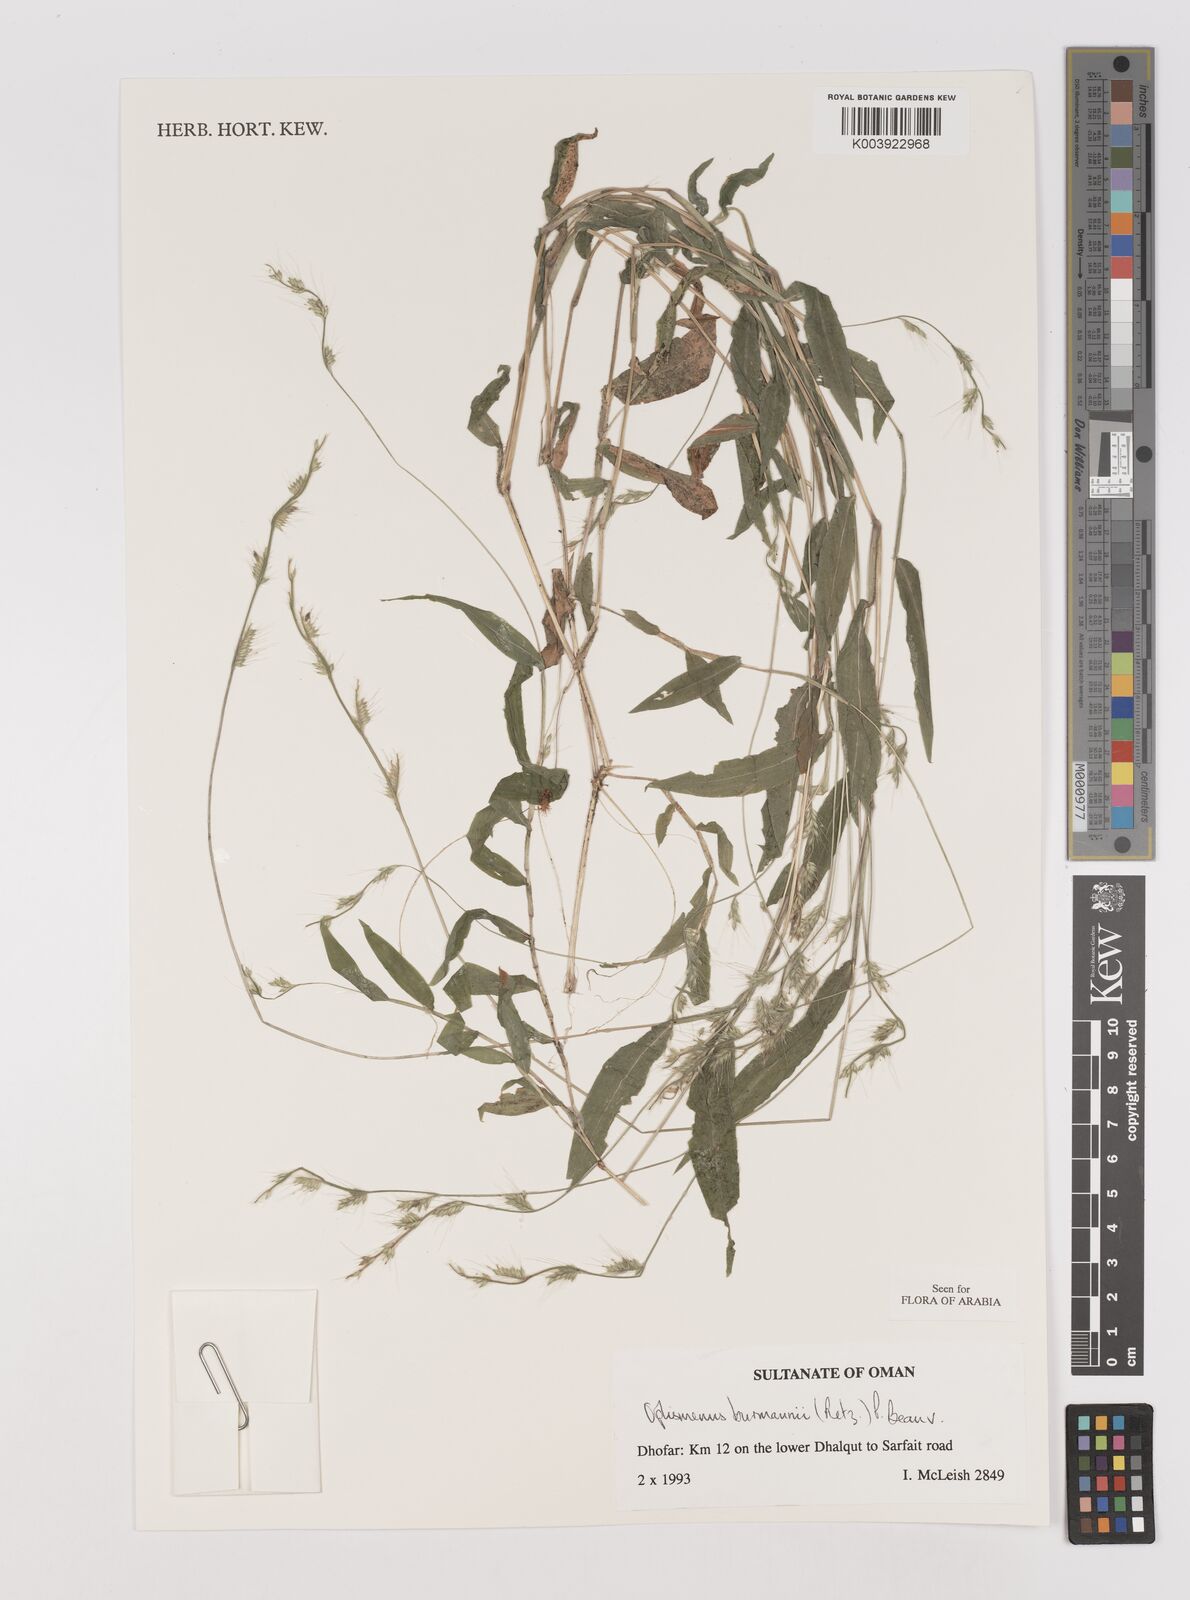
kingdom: Plantae
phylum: Tracheophyta
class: Liliopsida
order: Poales
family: Poaceae
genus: Oplismenus
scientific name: Oplismenus burmanni
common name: Burmann's basketgrass
